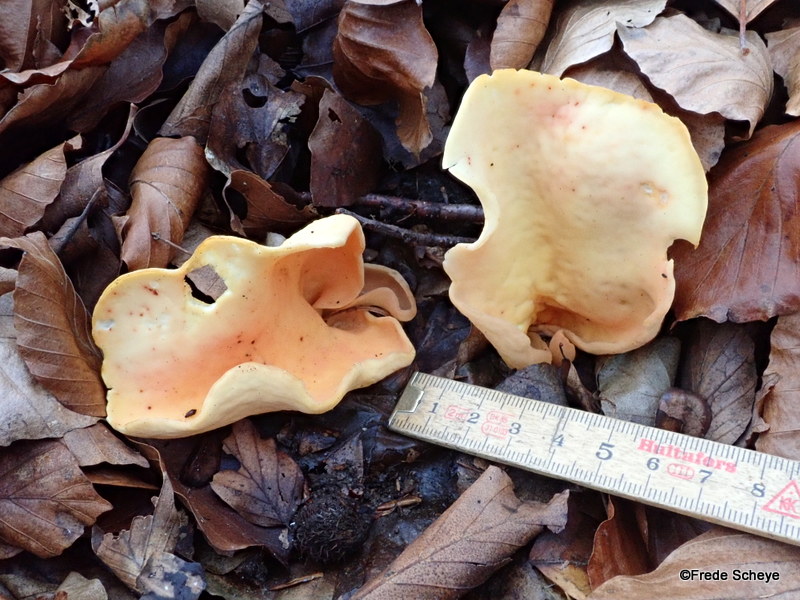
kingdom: Fungi
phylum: Ascomycota
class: Pezizomycetes
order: Pezizales
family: Otideaceae
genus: Otidea
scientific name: Otidea onotica
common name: æsel-ørebæger
